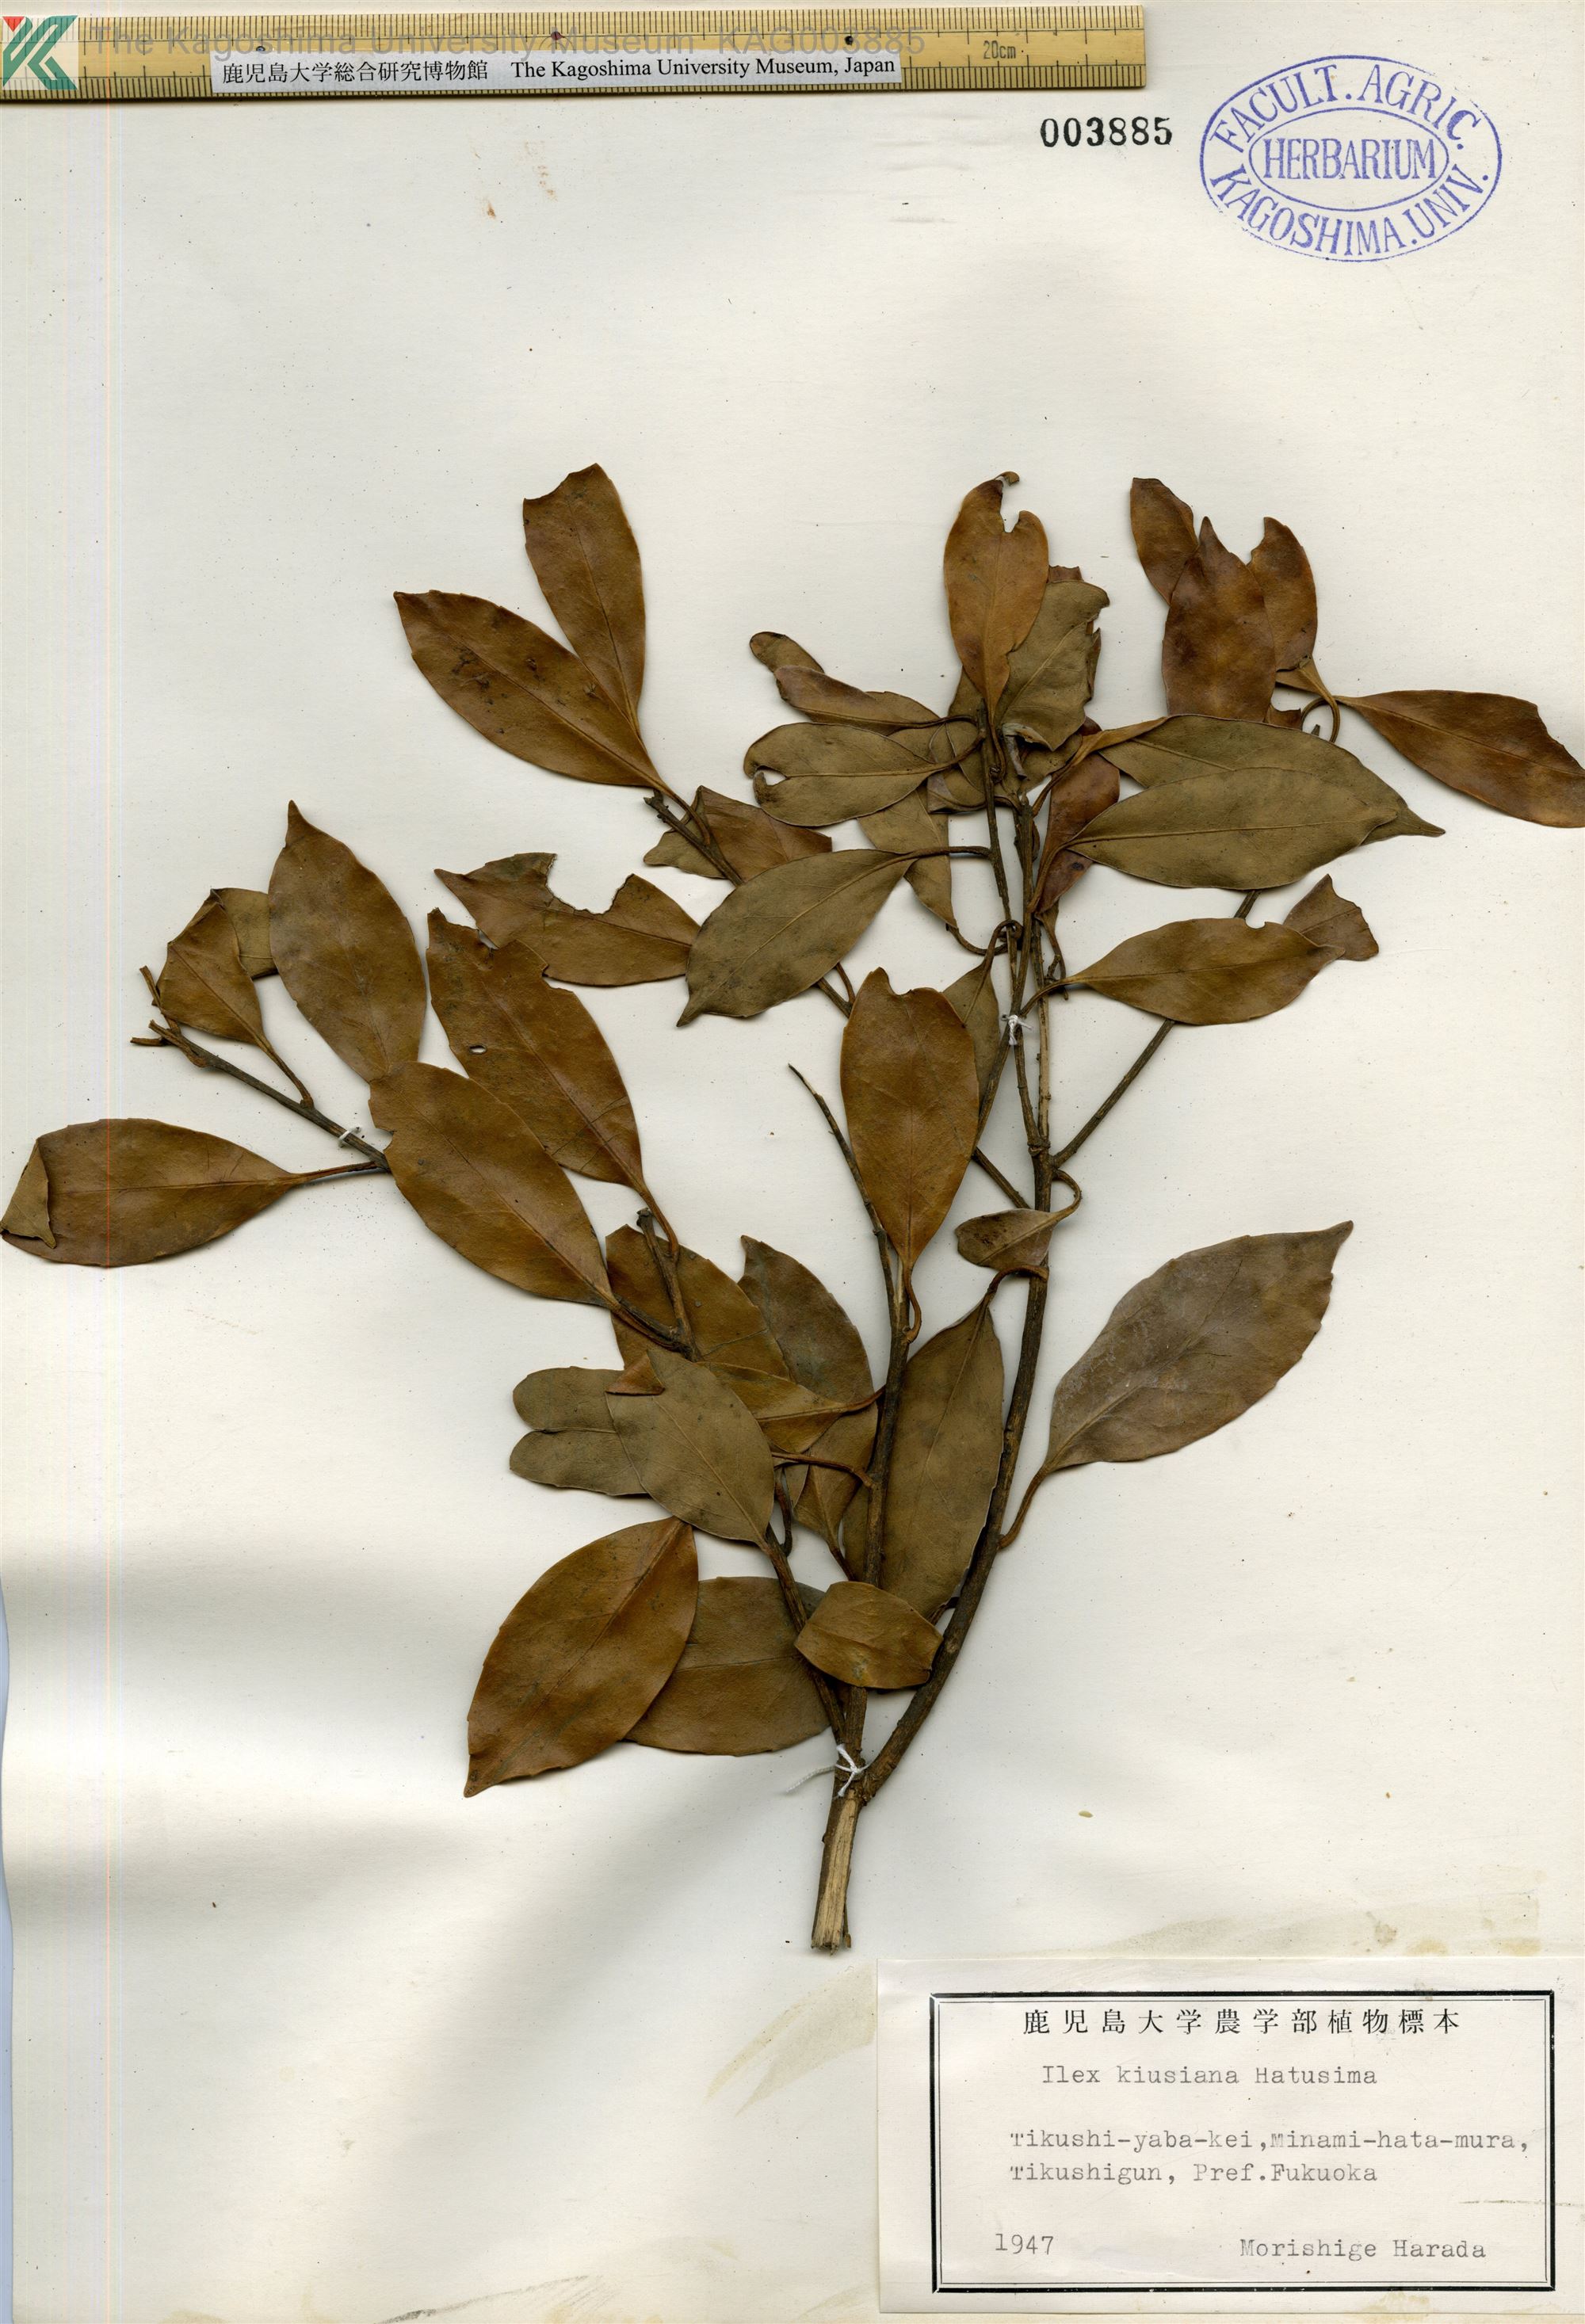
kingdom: Plantae
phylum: Tracheophyta
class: Magnoliopsida
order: Aquifoliales
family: Aquifoliaceae
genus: Ilex
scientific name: Ilex kiusiana
